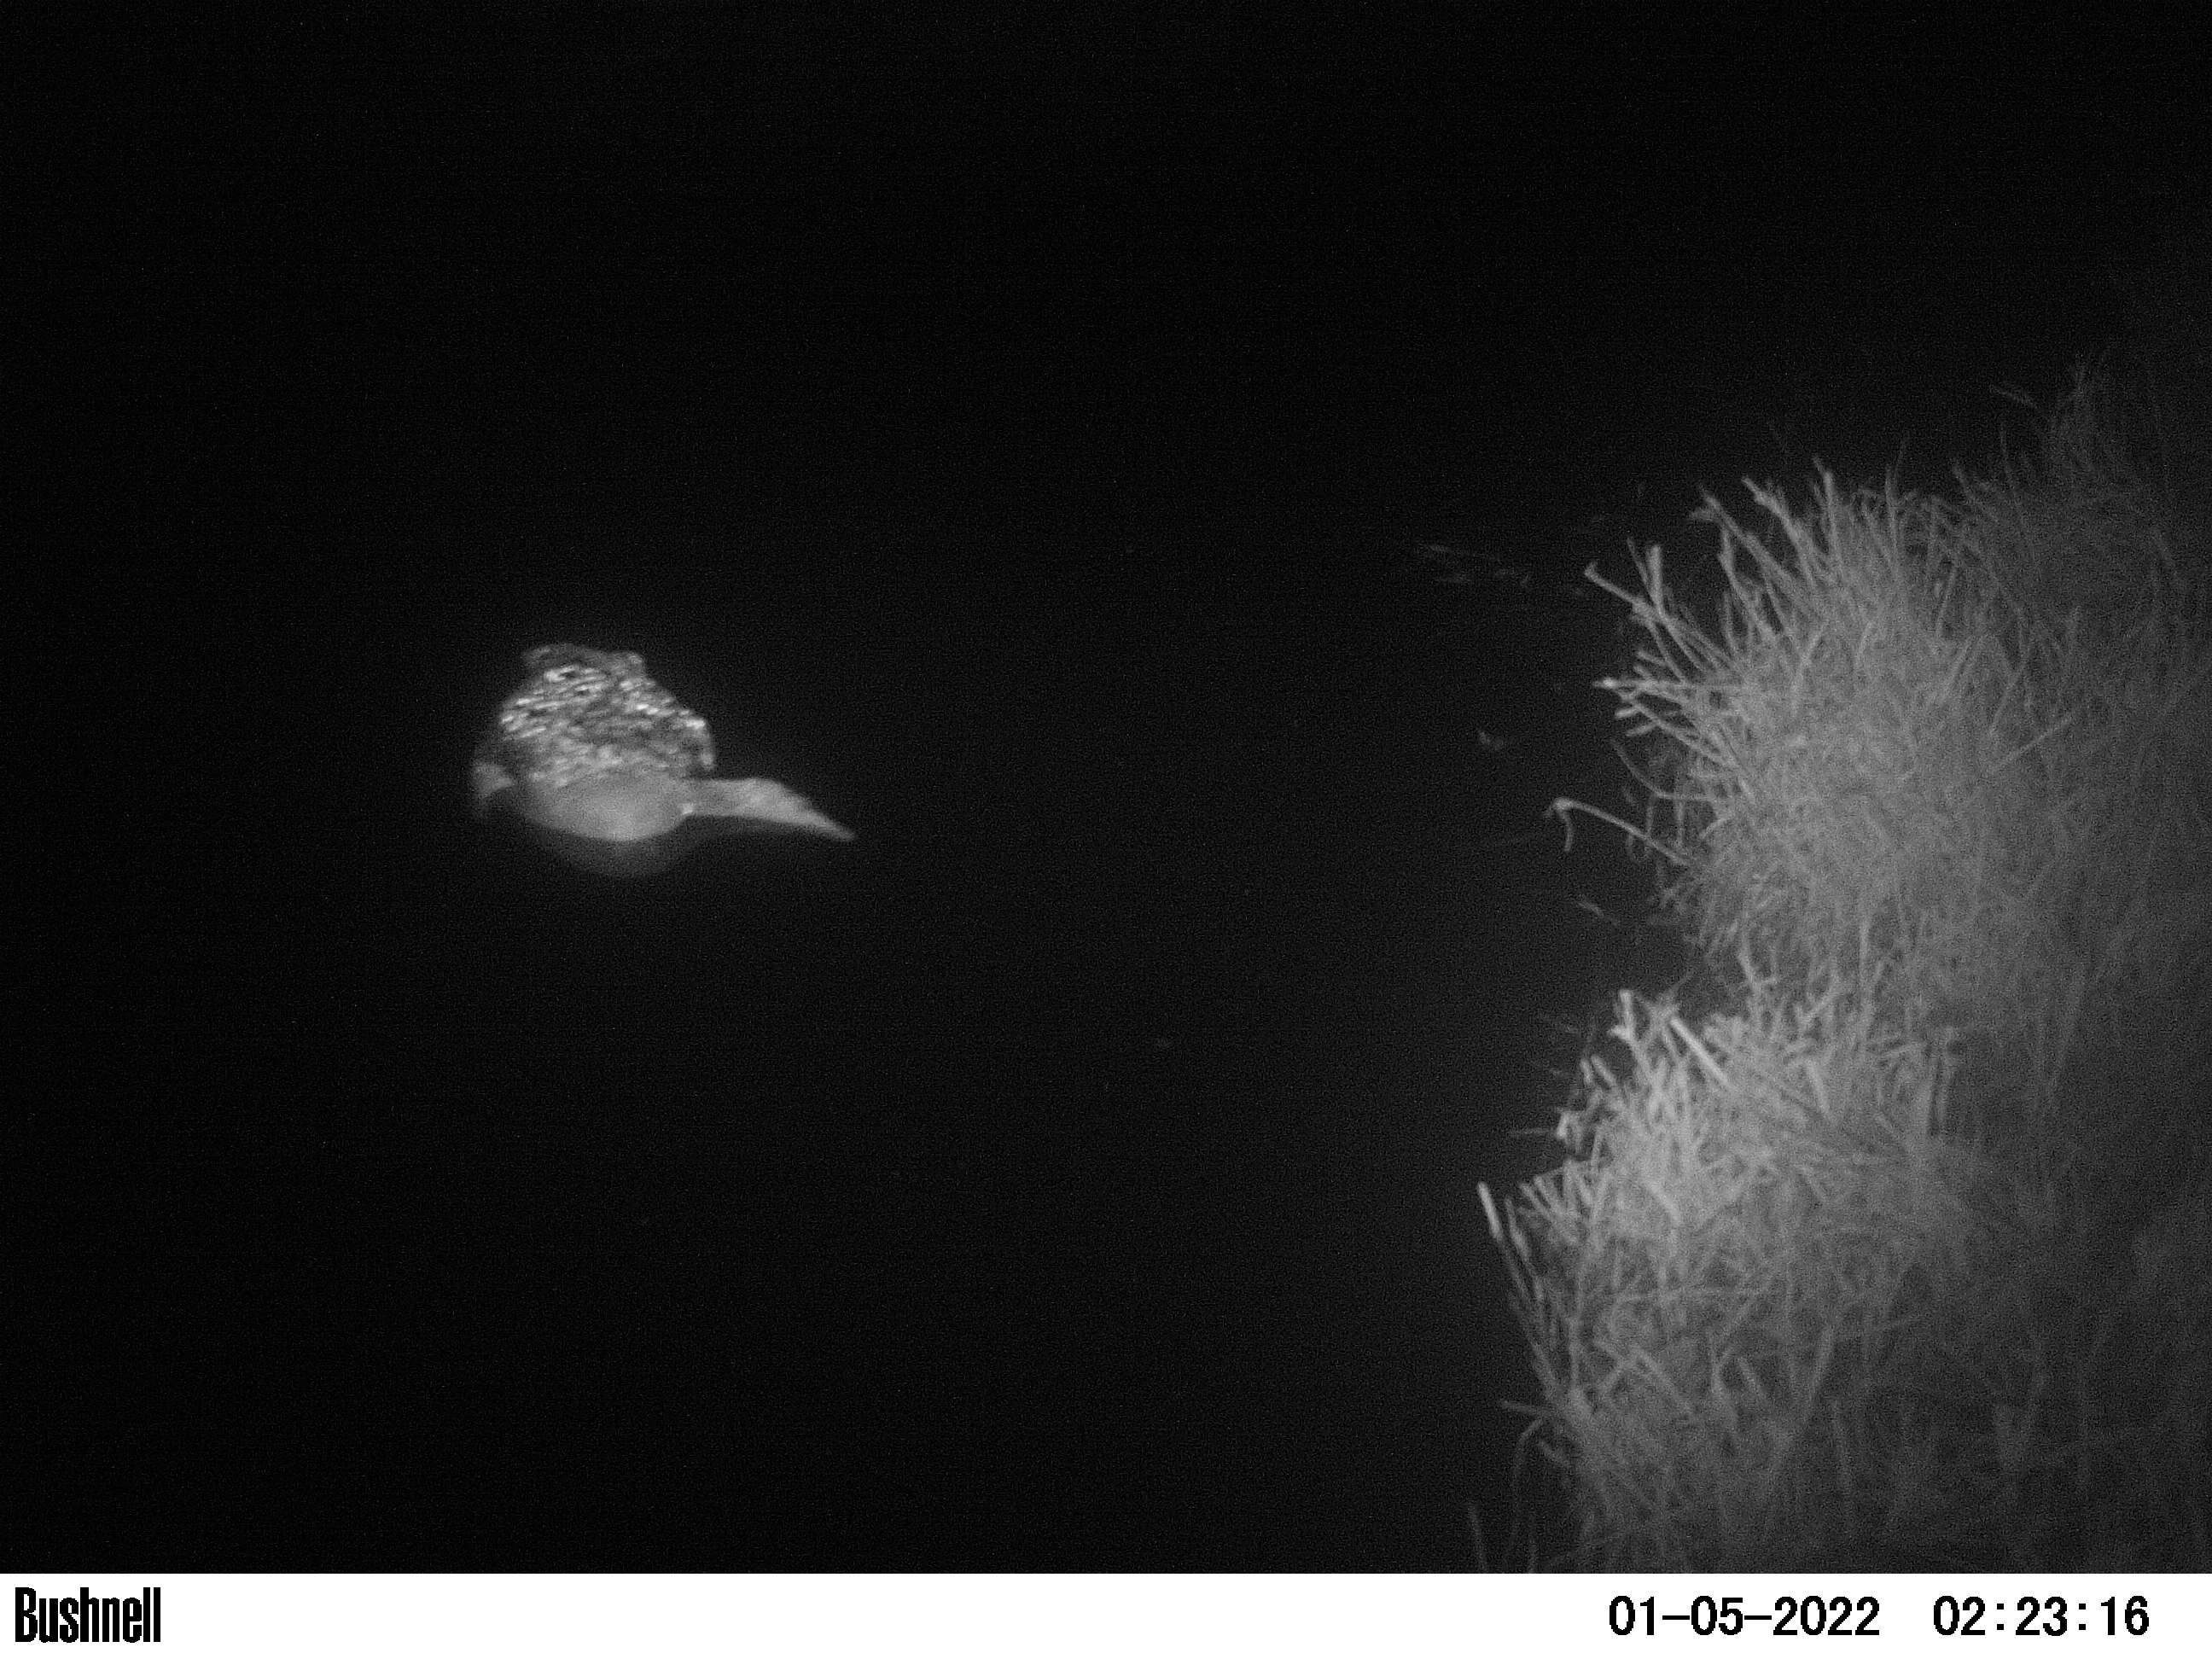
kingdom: Animalia
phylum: Chordata
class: Aves
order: Anseriformes
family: Anatidae
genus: Anas
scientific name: Anas
